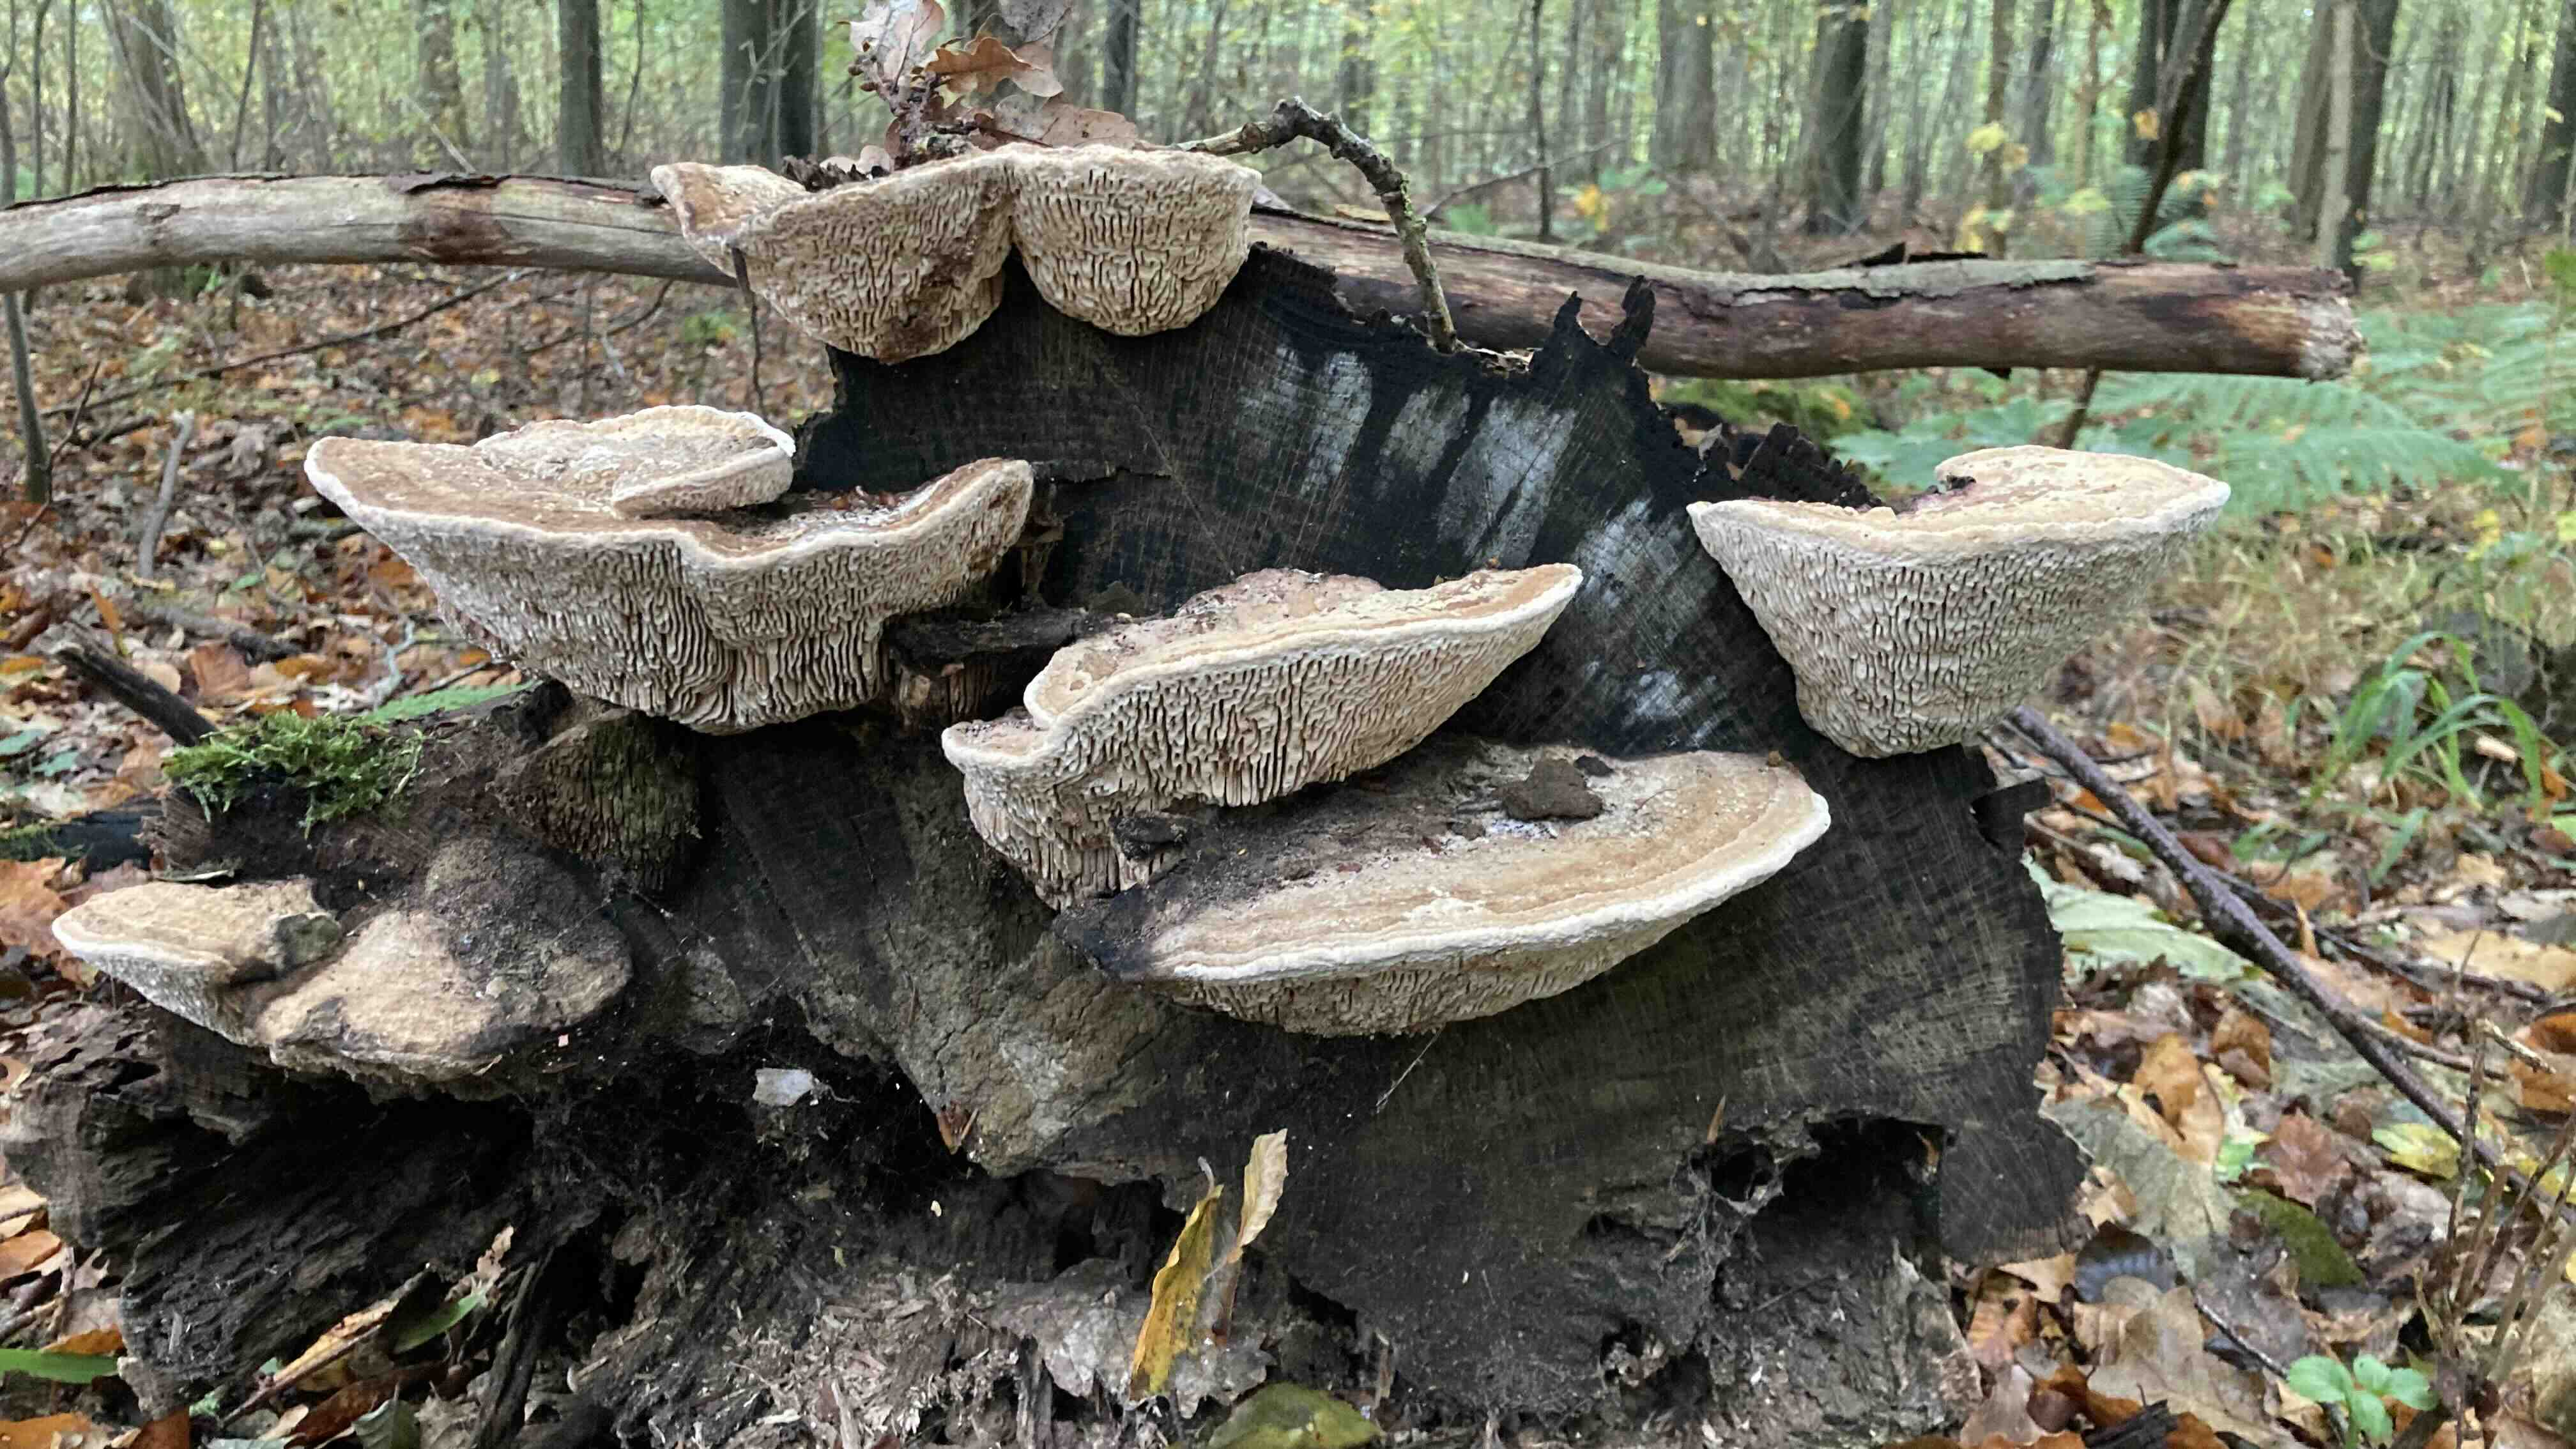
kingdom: Fungi
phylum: Basidiomycota
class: Agaricomycetes
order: Polyporales
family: Fomitopsidaceae
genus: Daedalea
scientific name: Daedalea quercina
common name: ege-labyrintsvamp
